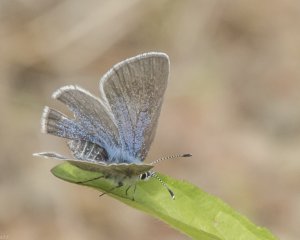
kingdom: Animalia
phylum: Arthropoda
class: Insecta
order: Lepidoptera
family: Lycaenidae
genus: Glaucopsyche
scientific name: Glaucopsyche lygdamus
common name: Silvery Blue
